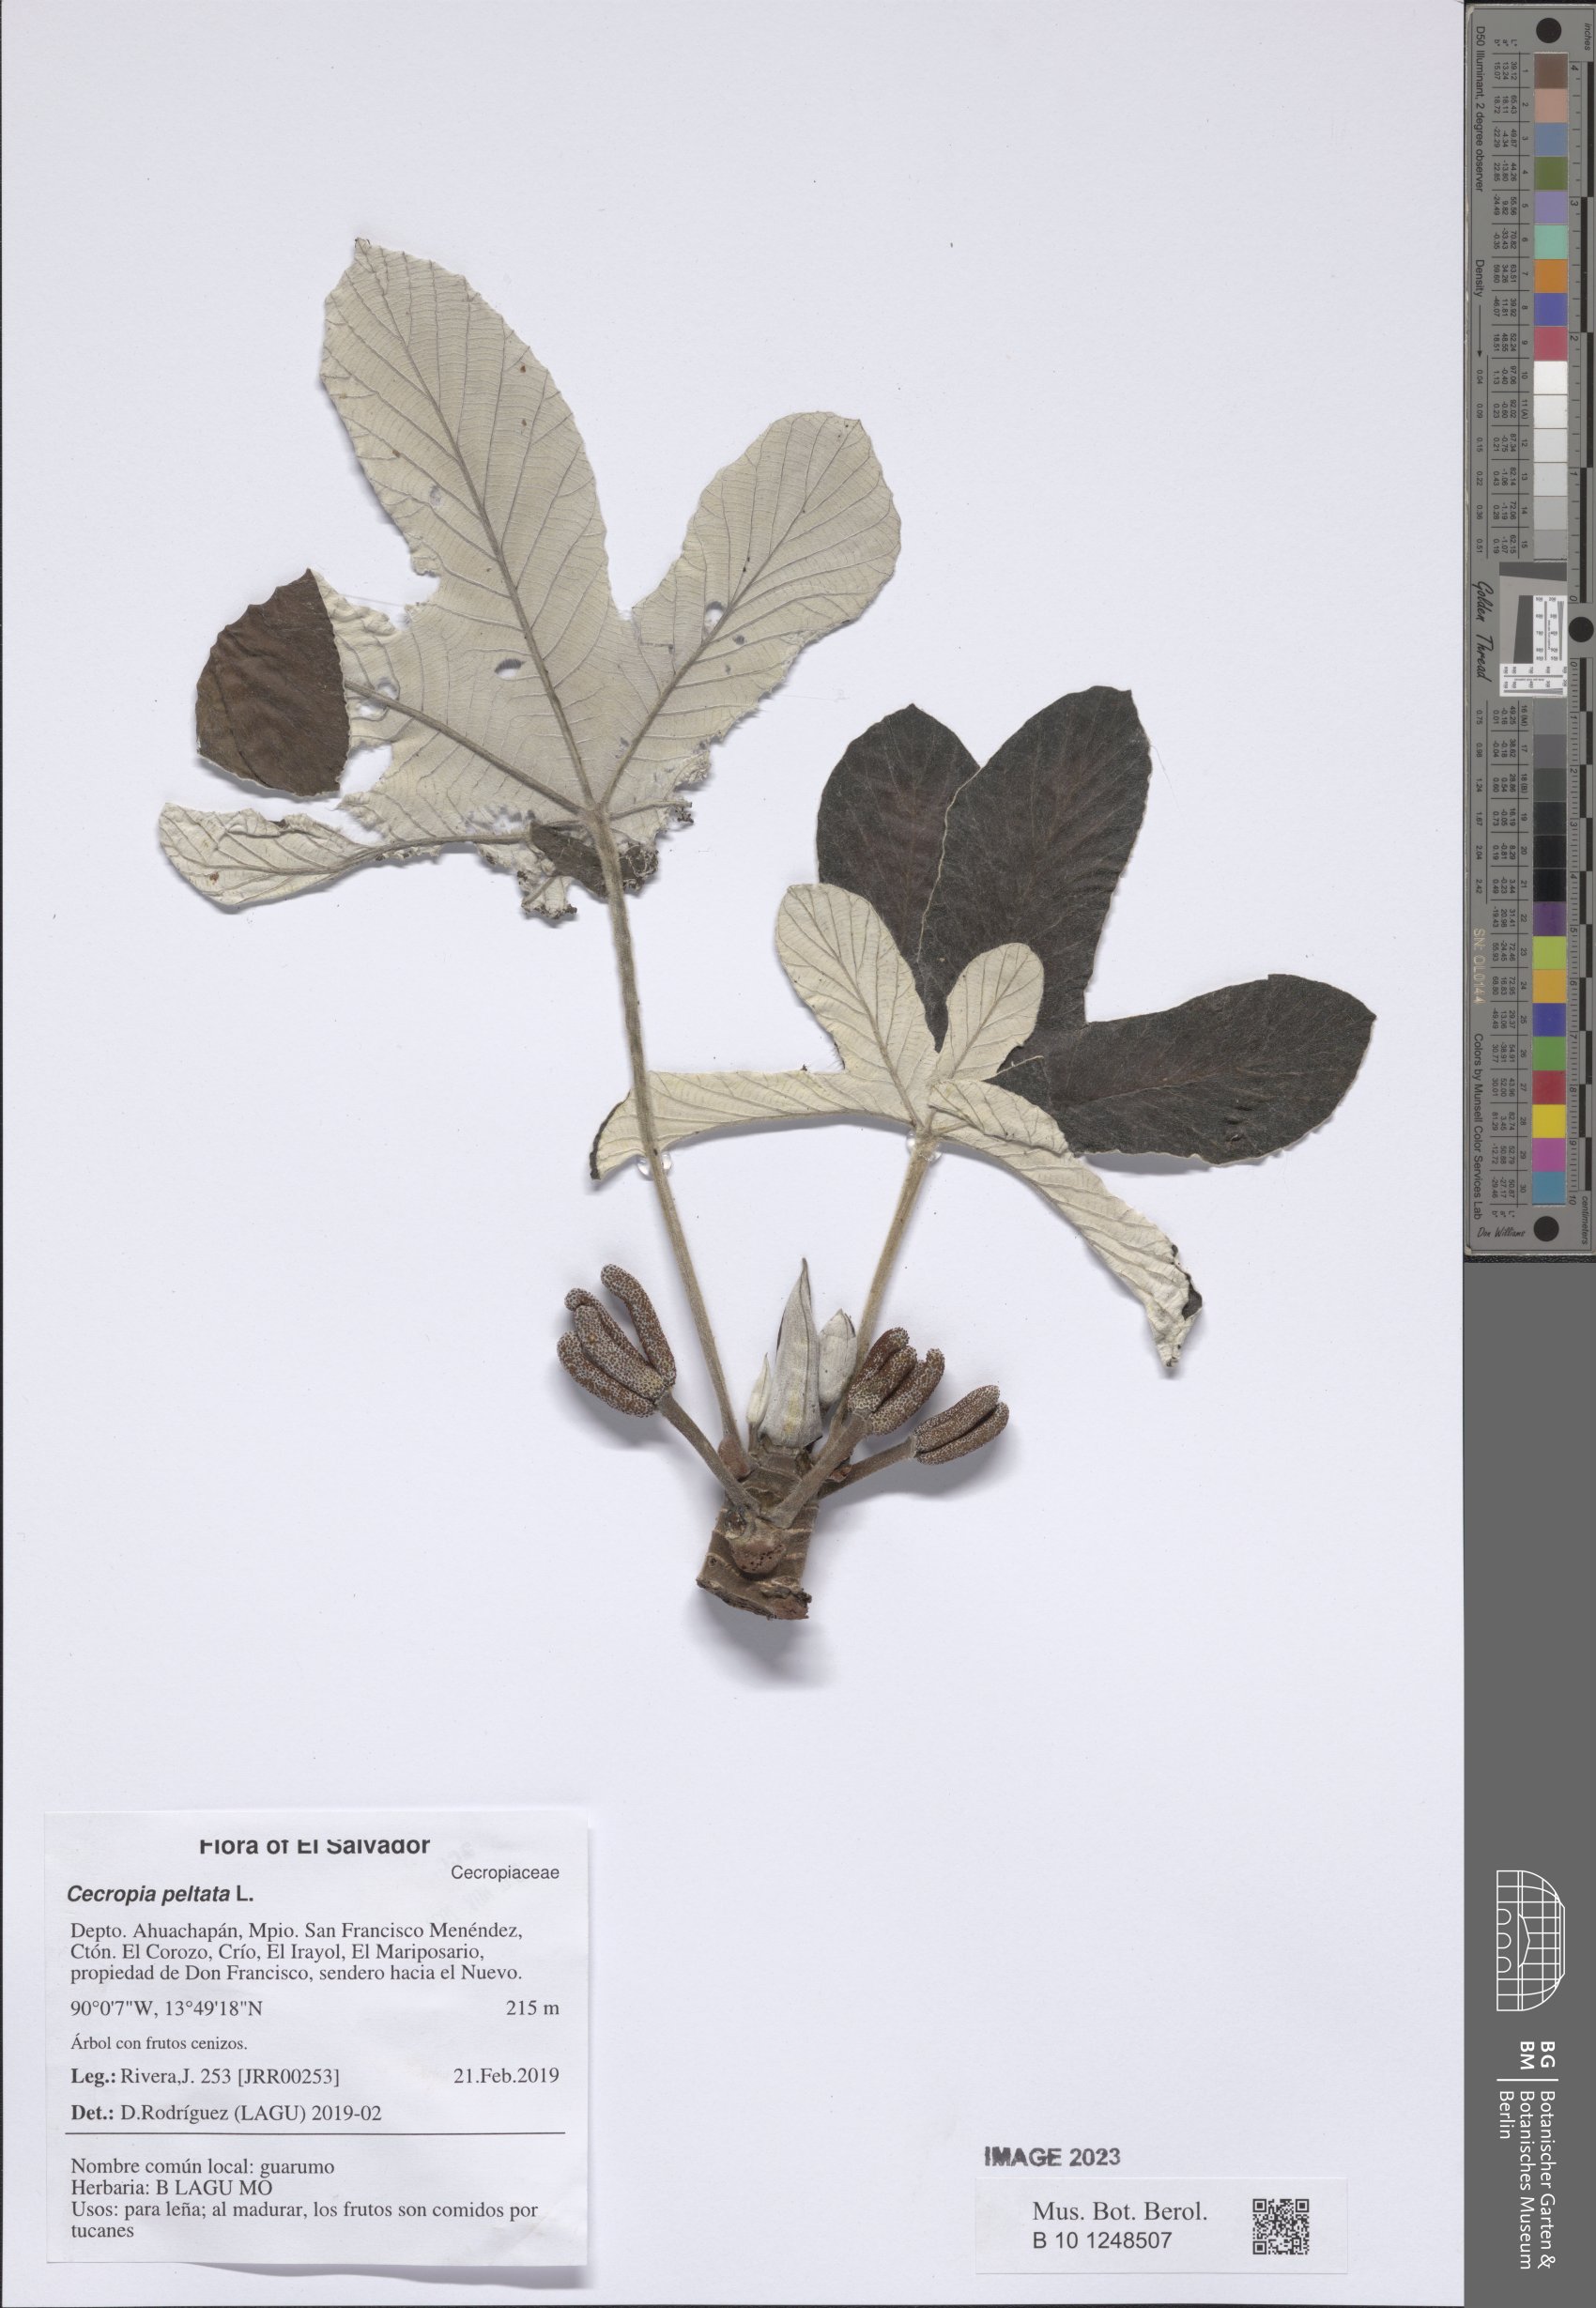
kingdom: Plantae
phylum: Tracheophyta
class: Magnoliopsida
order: Rosales
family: Urticaceae
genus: Cecropia
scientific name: Cecropia peltata
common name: Trumpet-tree
